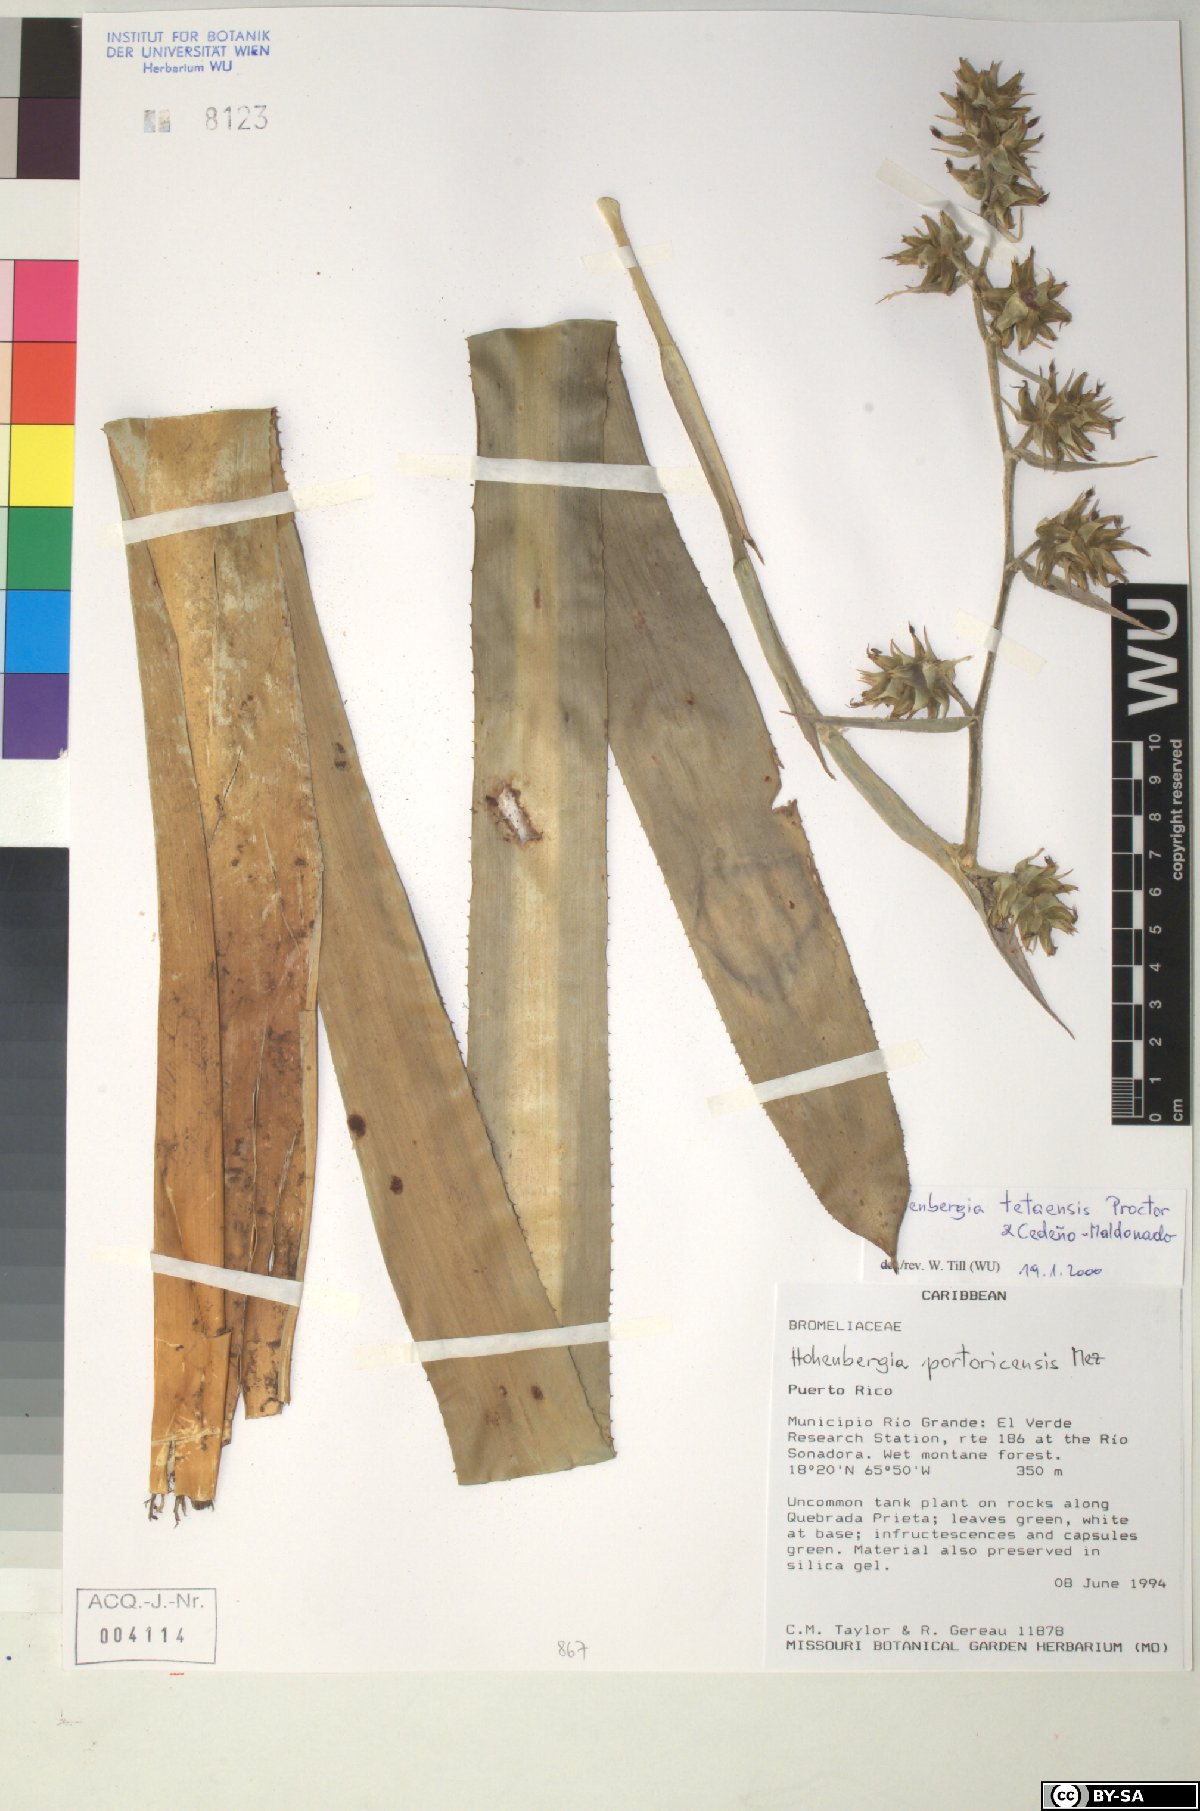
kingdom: Plantae
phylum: Tracheophyta
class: Liliopsida
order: Poales
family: Bromeliaceae
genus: Wittmackia
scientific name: Wittmackia portoricensis
